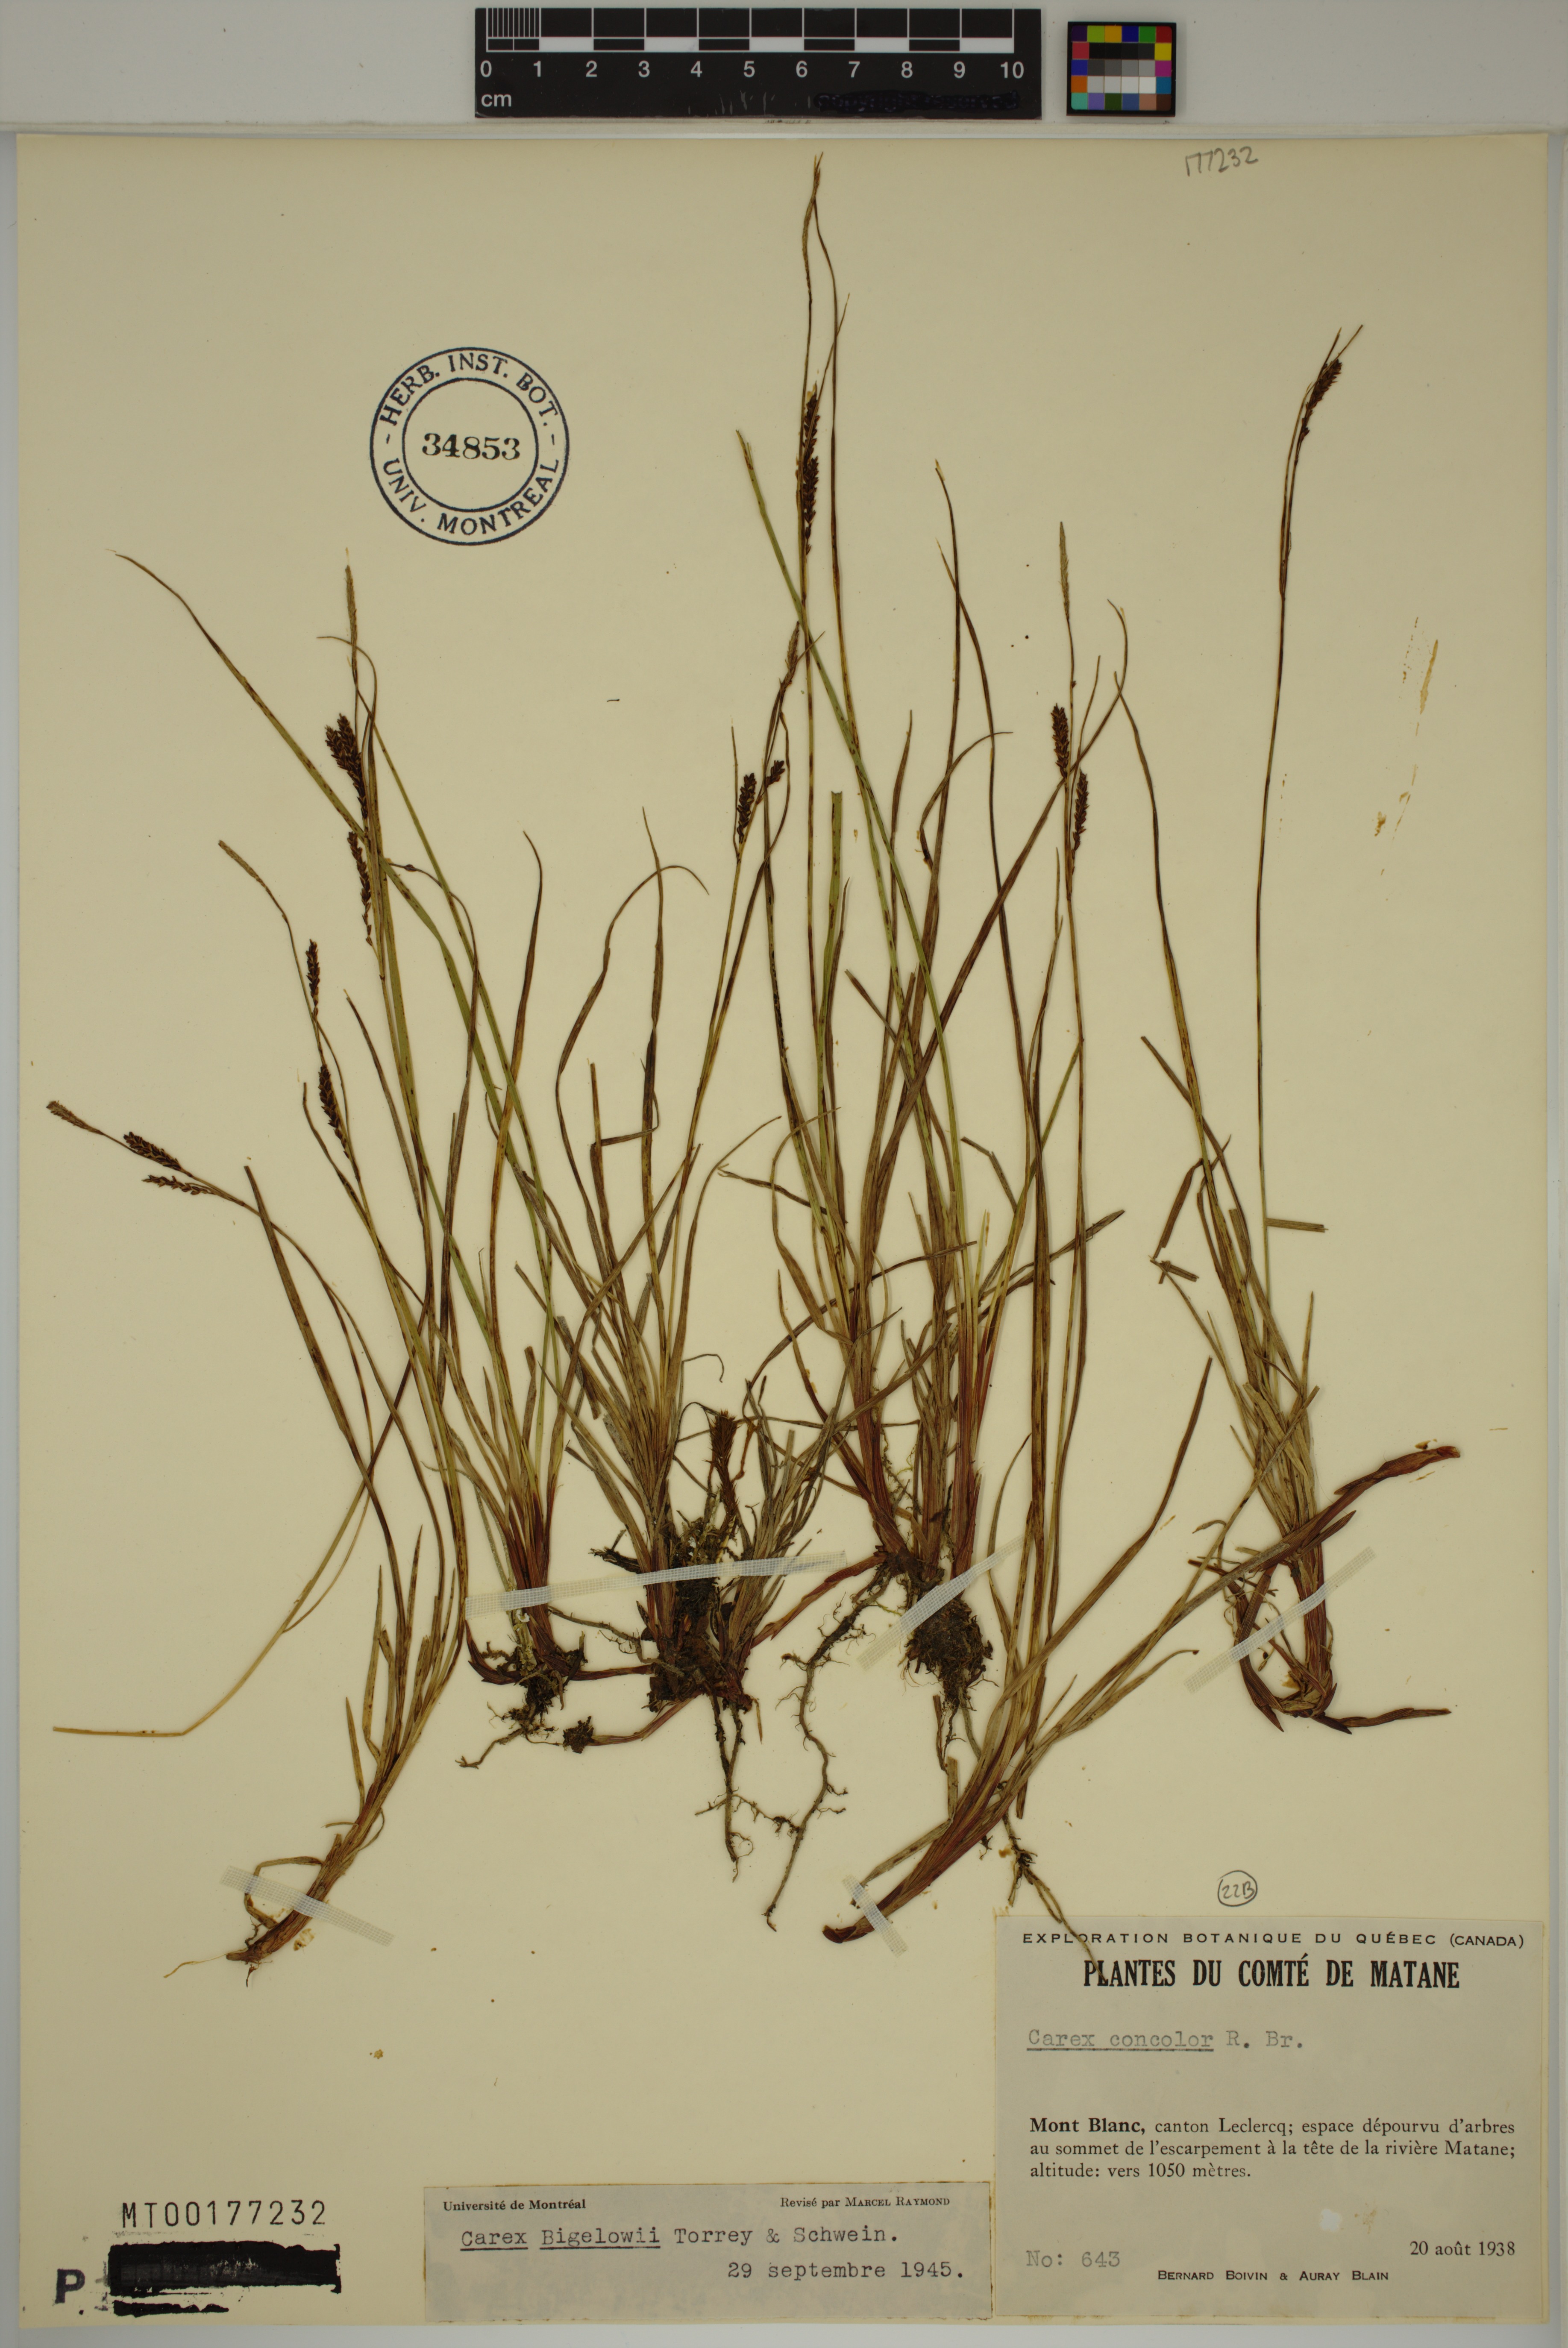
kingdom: Plantae
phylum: Tracheophyta
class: Liliopsida
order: Poales
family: Cyperaceae
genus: Carex
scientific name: Carex bigelowii
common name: Stiff sedge
